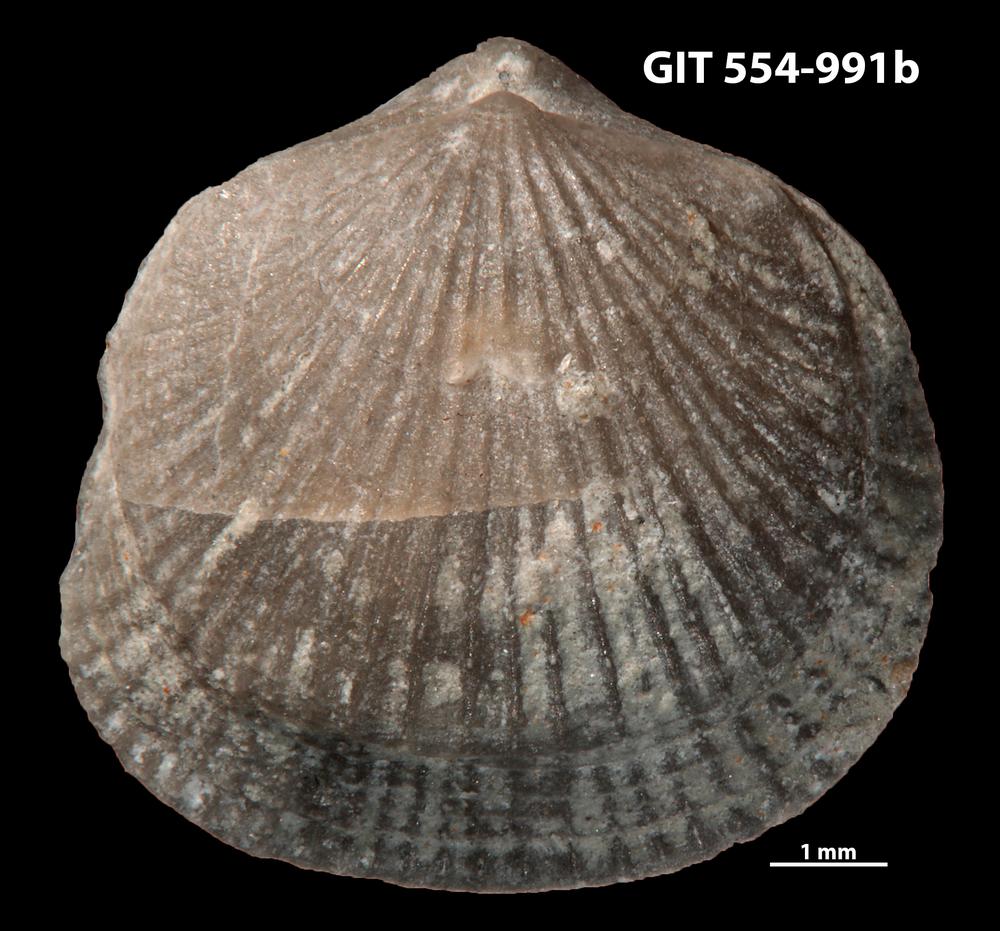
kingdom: Animalia
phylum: Brachiopoda
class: Rhynchonellata
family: Rhipidomellidae
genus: Mendacella
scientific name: Mendacella Orthis hybrida
